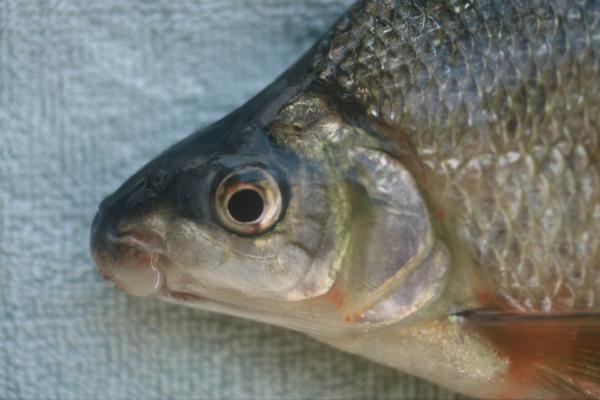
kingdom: Animalia
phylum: Chordata
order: Characiformes
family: Distichodontidae
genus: Distichodus
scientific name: Distichodus schenga
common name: Chessa
